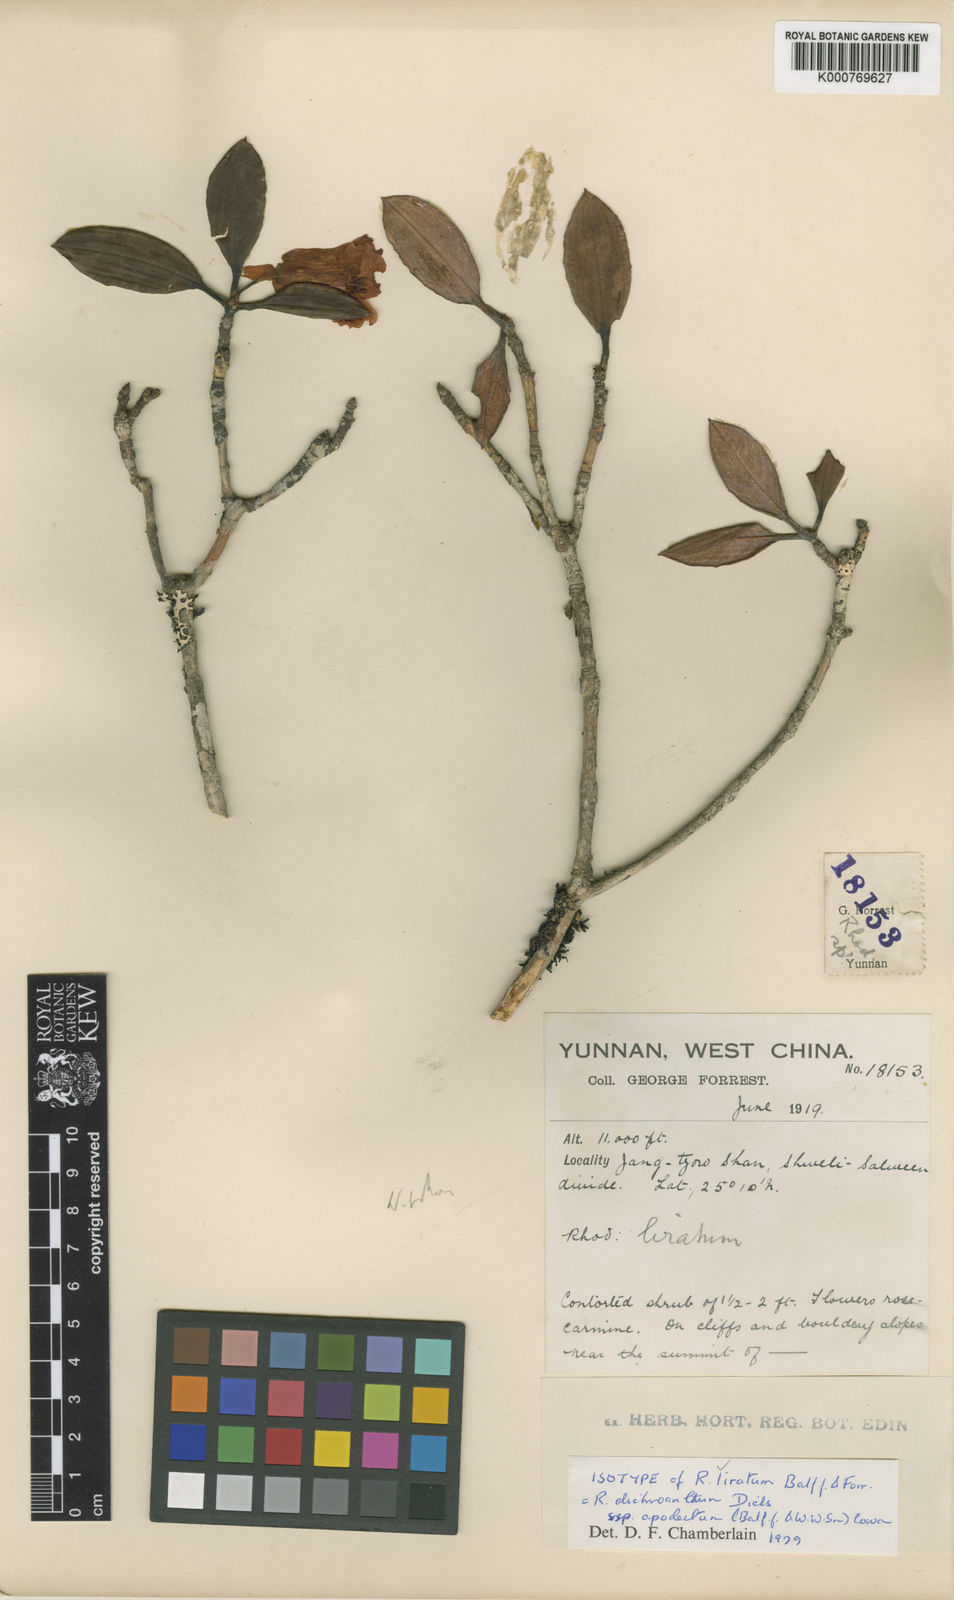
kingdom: Plantae
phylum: Tracheophyta
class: Magnoliopsida
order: Ericales
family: Ericaceae
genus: Rhododendron
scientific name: Rhododendron dichroanthum
